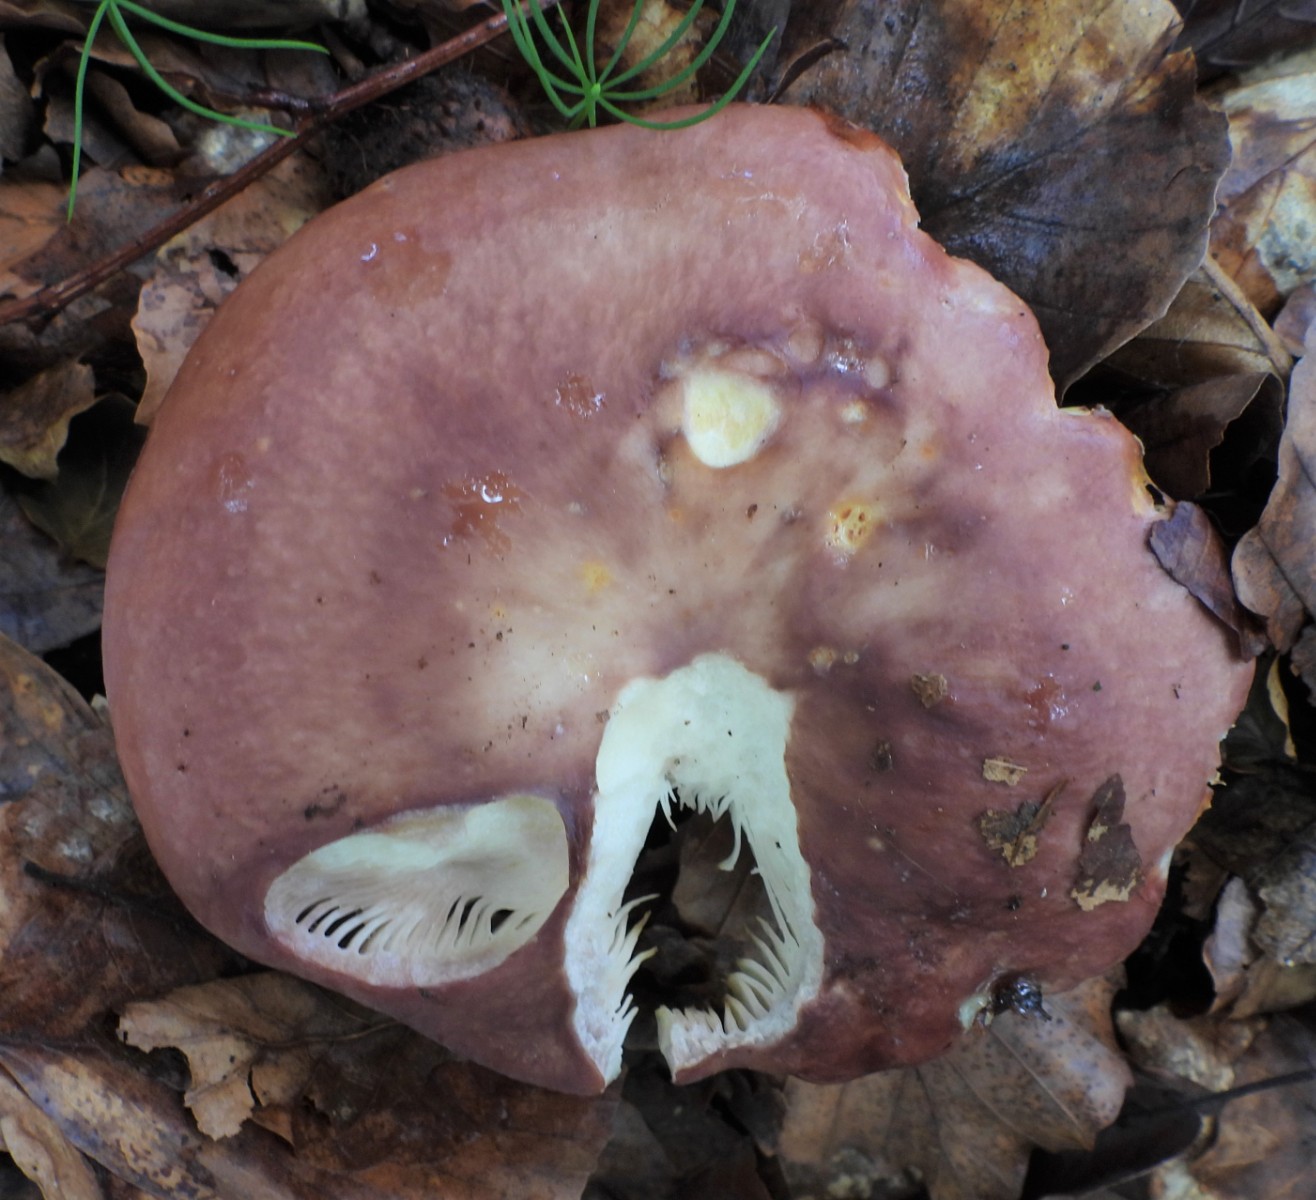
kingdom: Fungi
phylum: Basidiomycota
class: Agaricomycetes
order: Russulales
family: Russulaceae
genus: Russula
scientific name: Russula vesca
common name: spiselig skørhat
